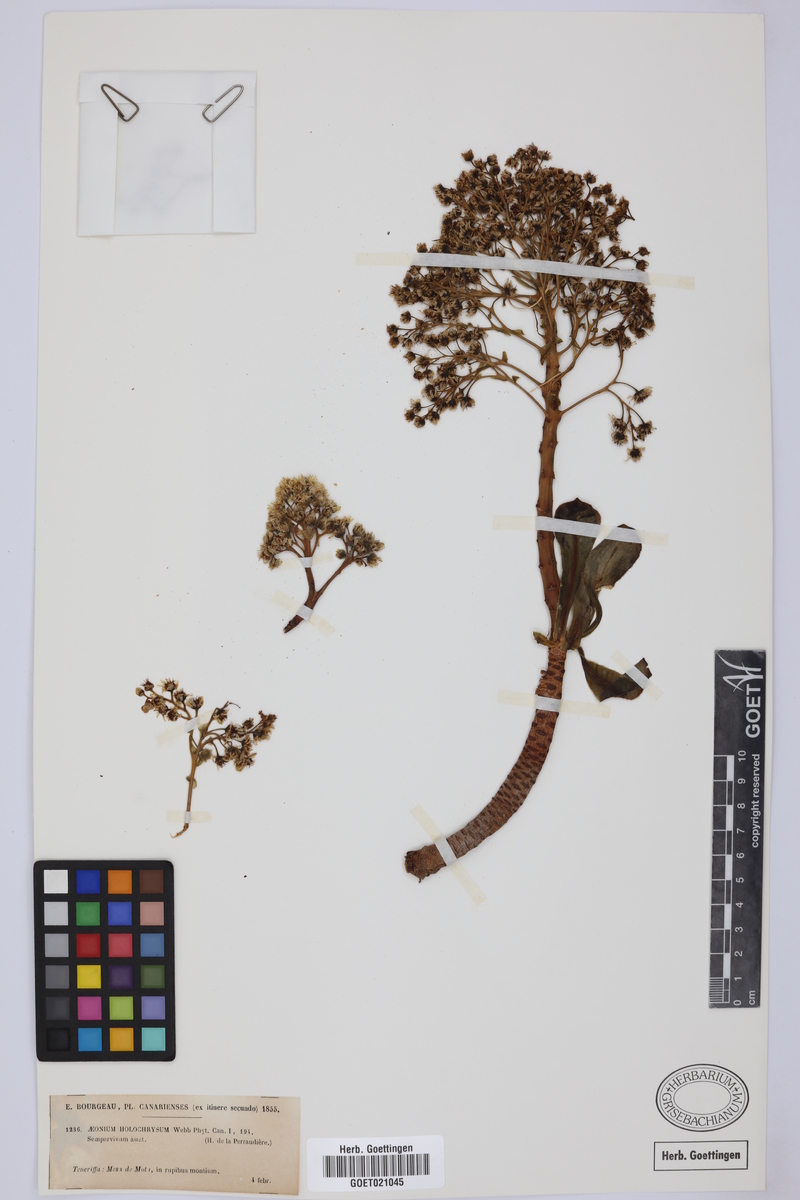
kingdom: Plantae
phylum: Tracheophyta
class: Magnoliopsida
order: Saxifragales
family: Crassulaceae
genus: Aeonium
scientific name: Aeonium arboreum
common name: Tree aeonium
